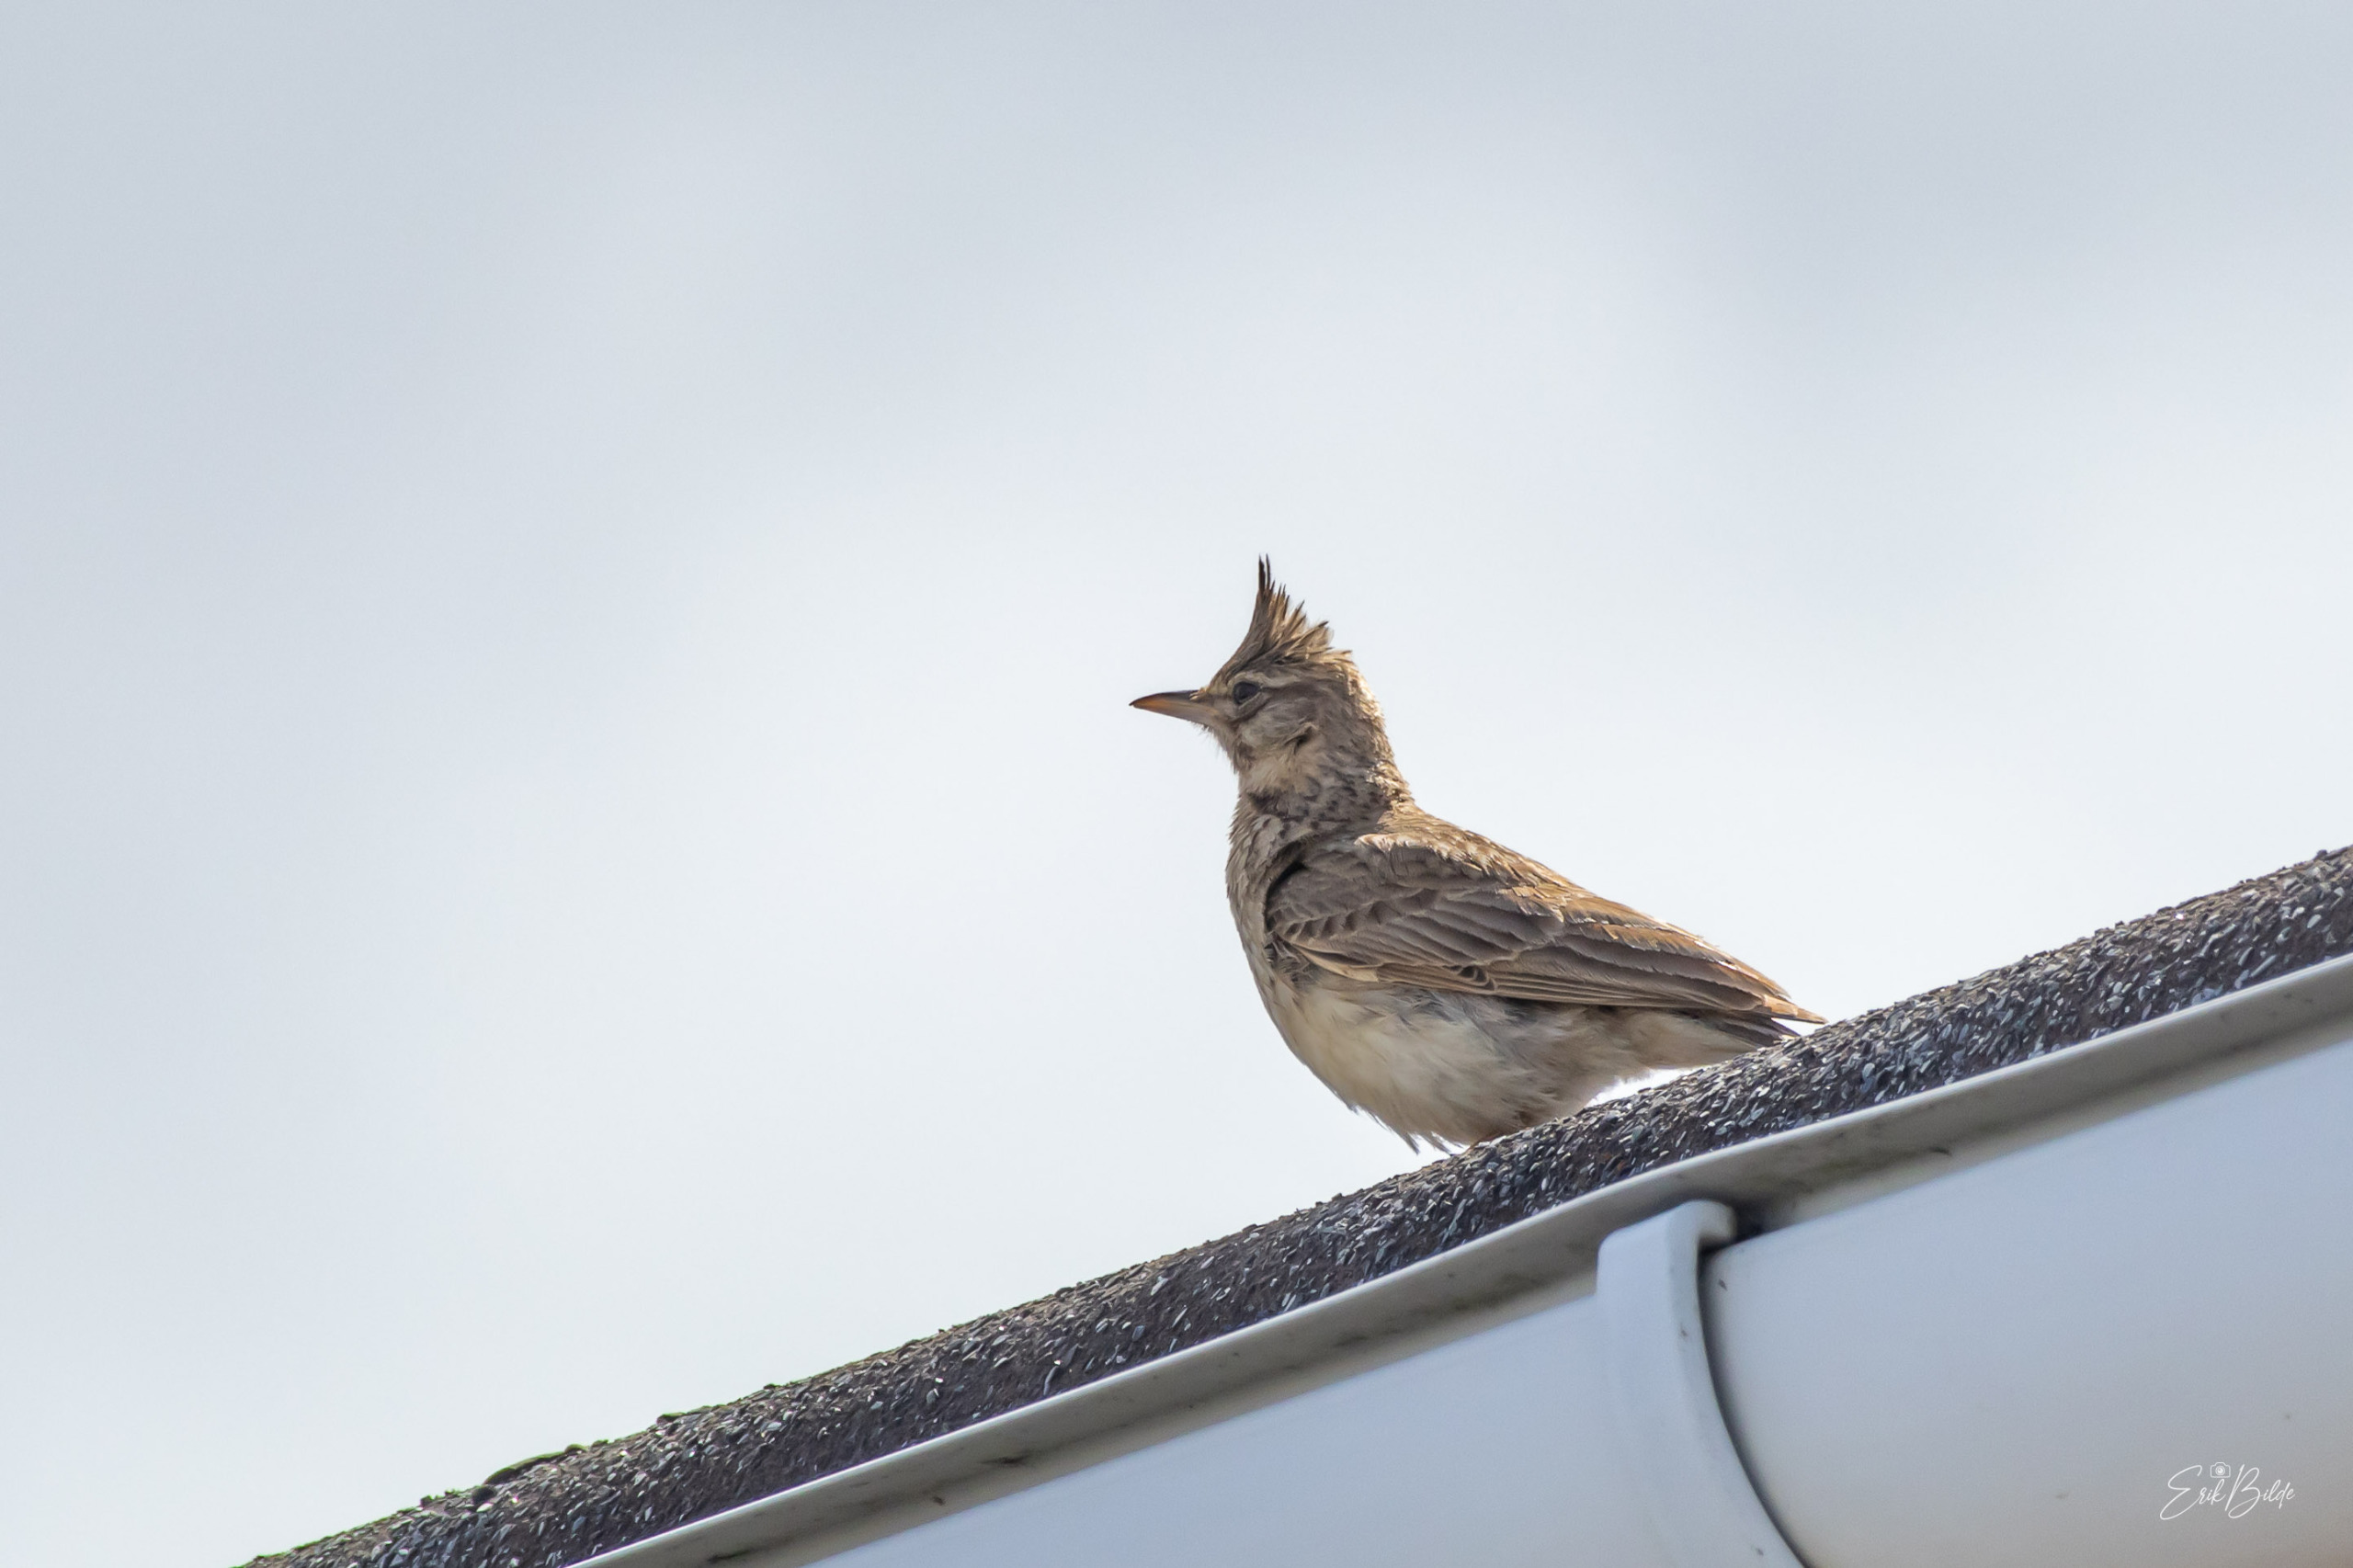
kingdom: Animalia
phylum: Chordata
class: Aves
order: Passeriformes
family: Alaudidae
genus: Galerida
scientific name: Galerida cristata
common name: Toplærke
